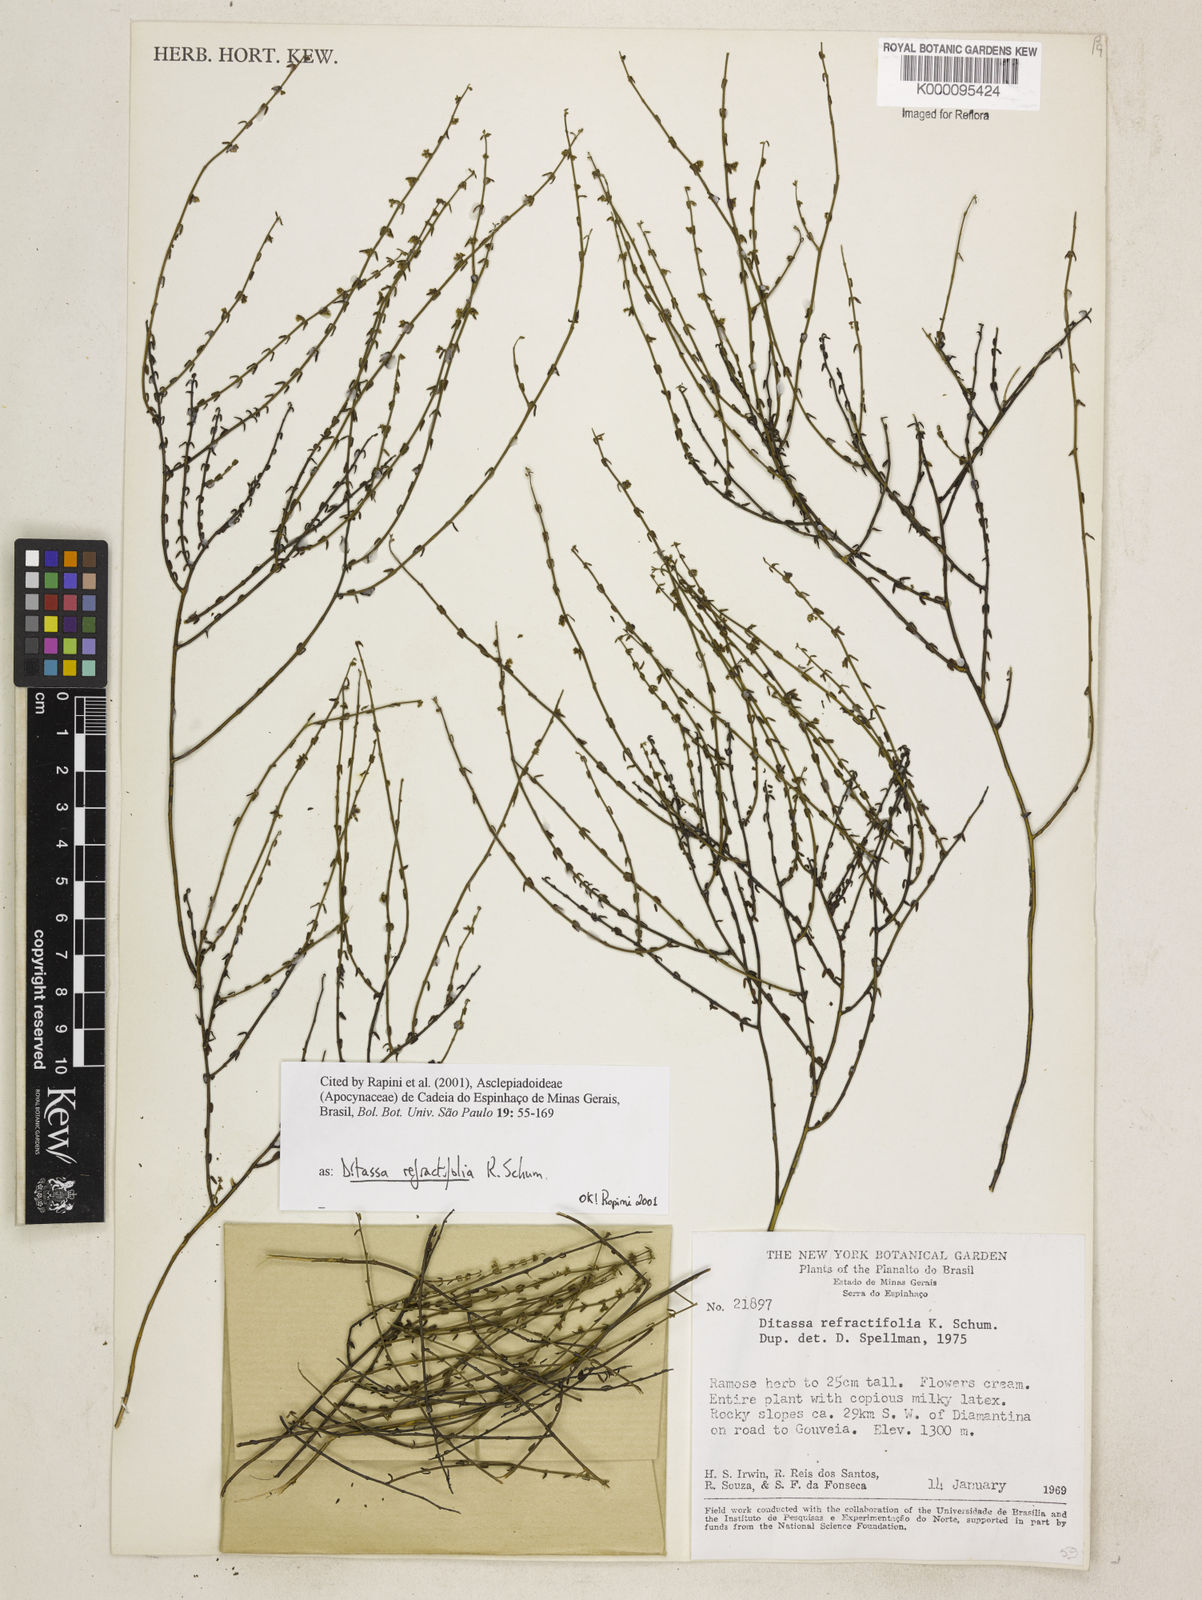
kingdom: Plantae
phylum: Tracheophyta
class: Magnoliopsida
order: Gentianales
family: Apocynaceae
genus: Minaria
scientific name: Minaria refractifolia
